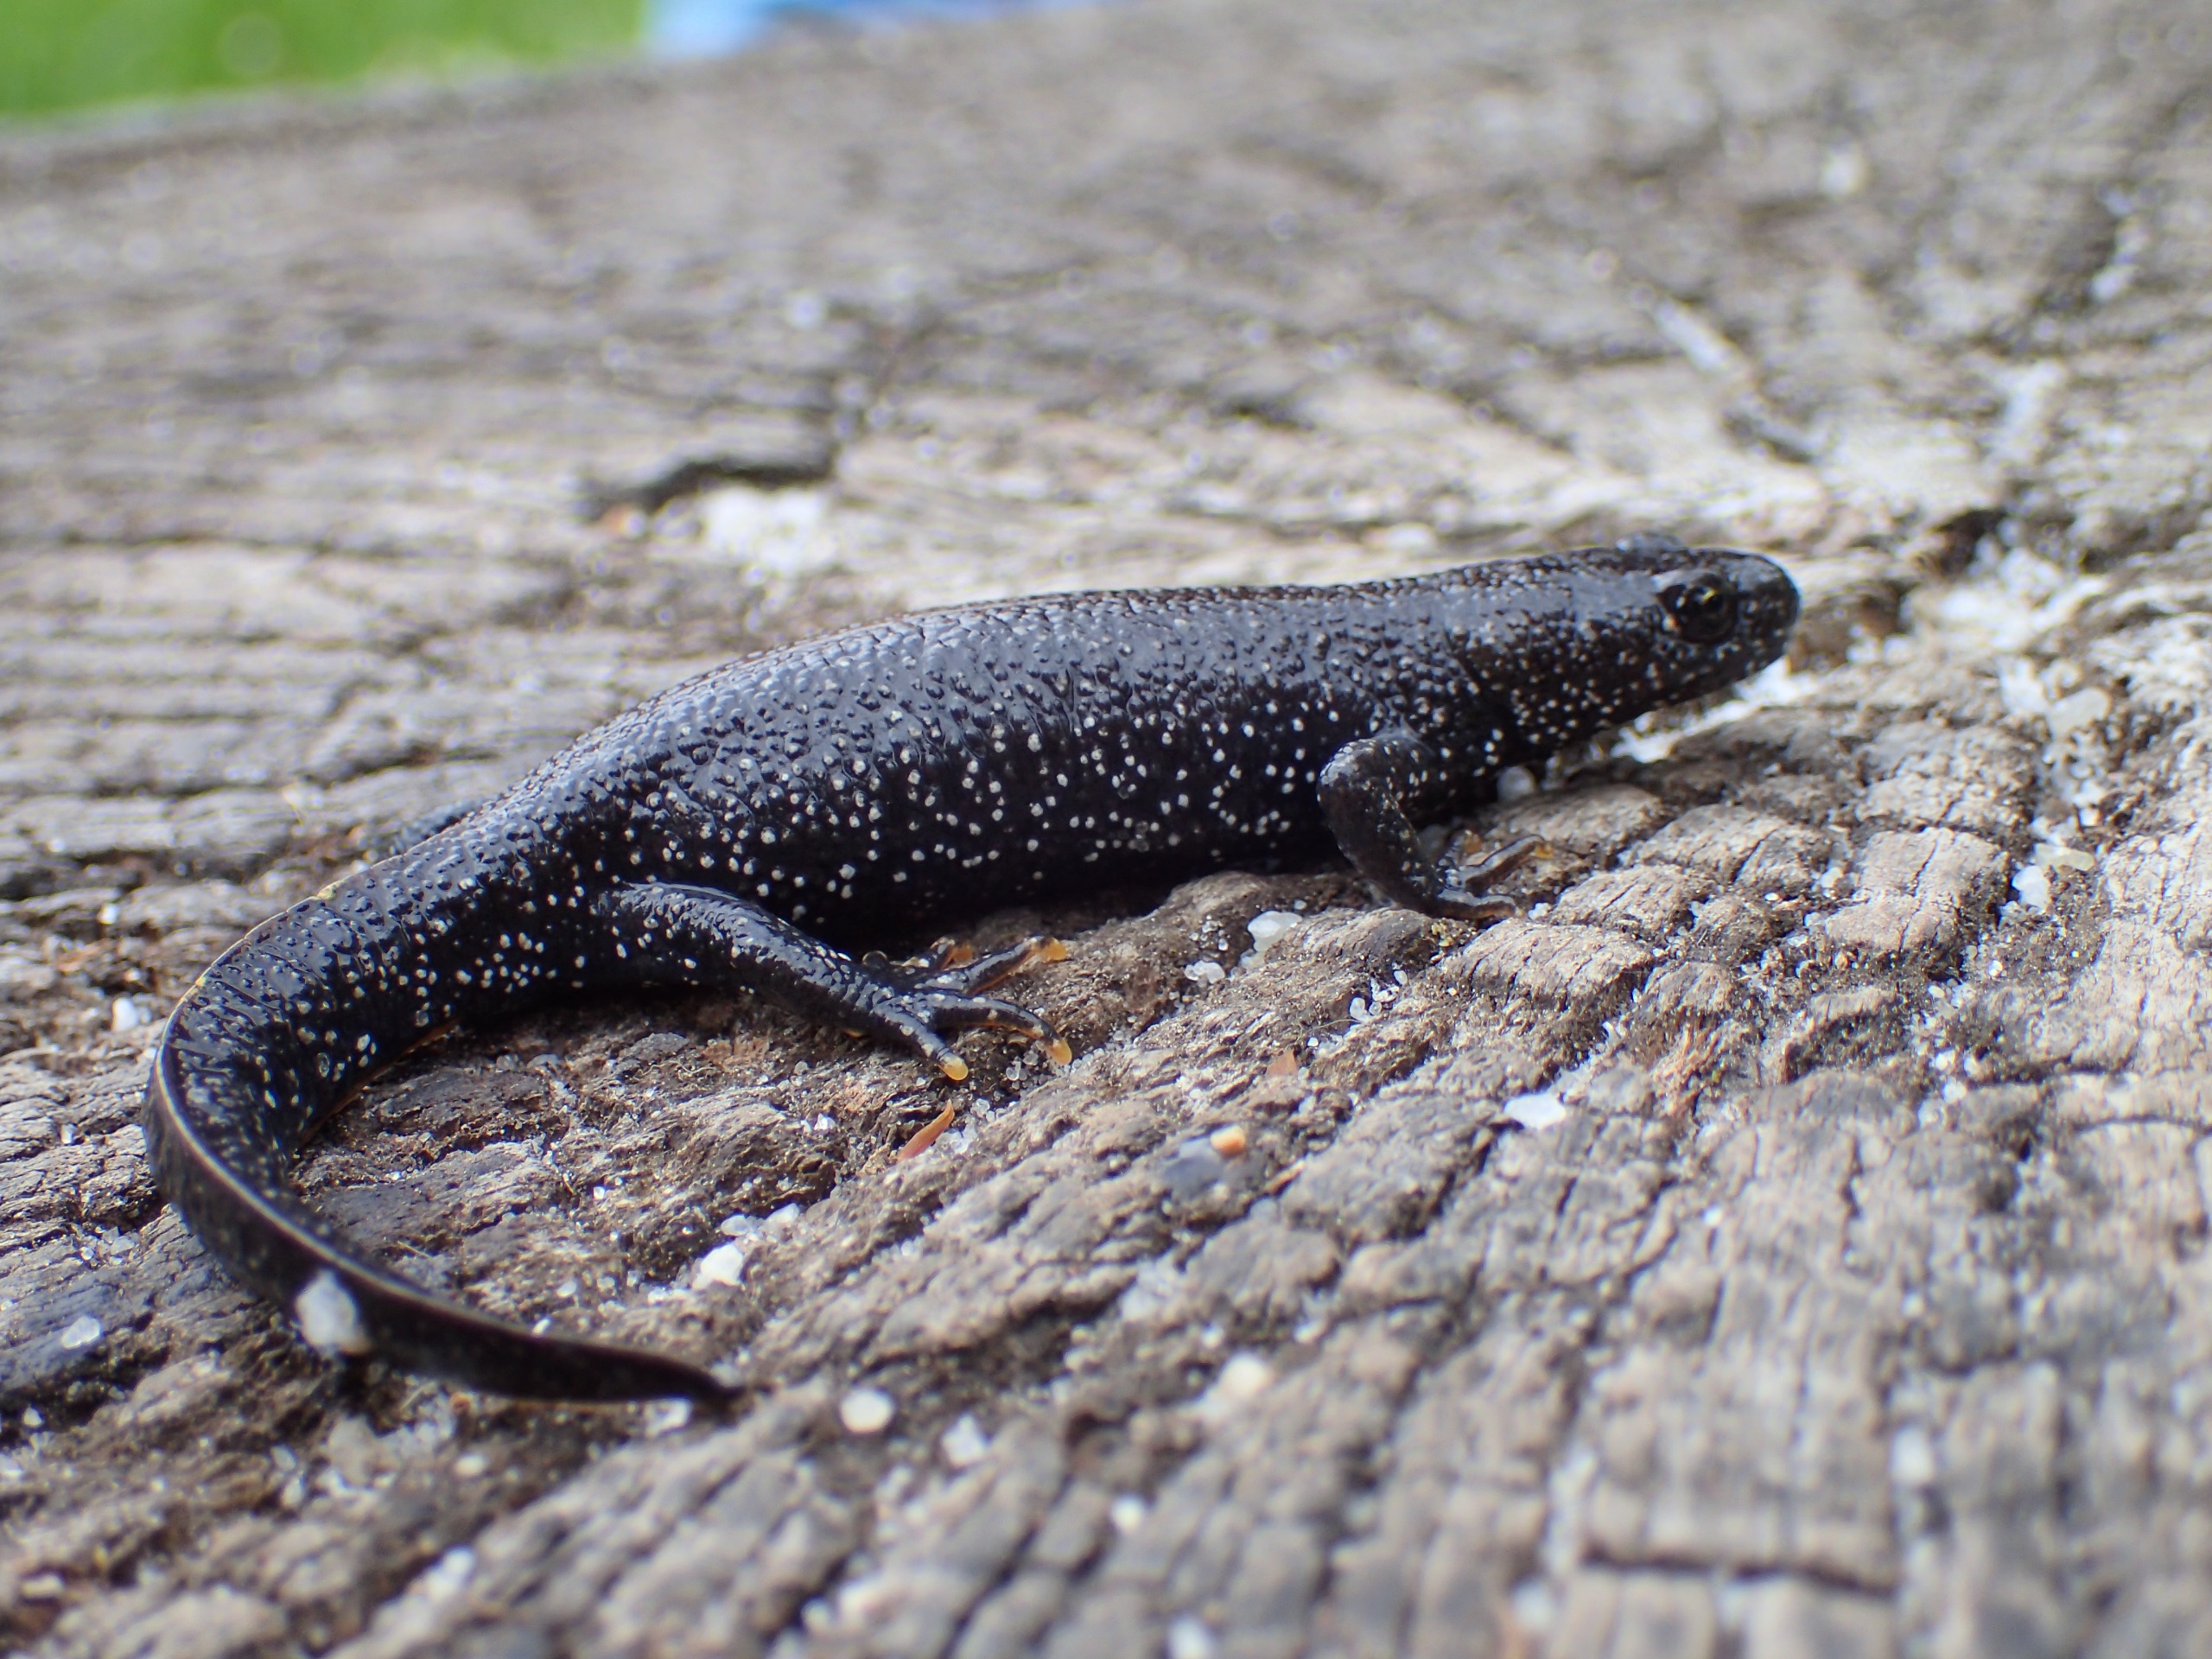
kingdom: Animalia
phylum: Chordata
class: Amphibia
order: Caudata
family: Salamandridae
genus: Triturus
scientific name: Triturus cristatus
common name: Stor vandsalamander
